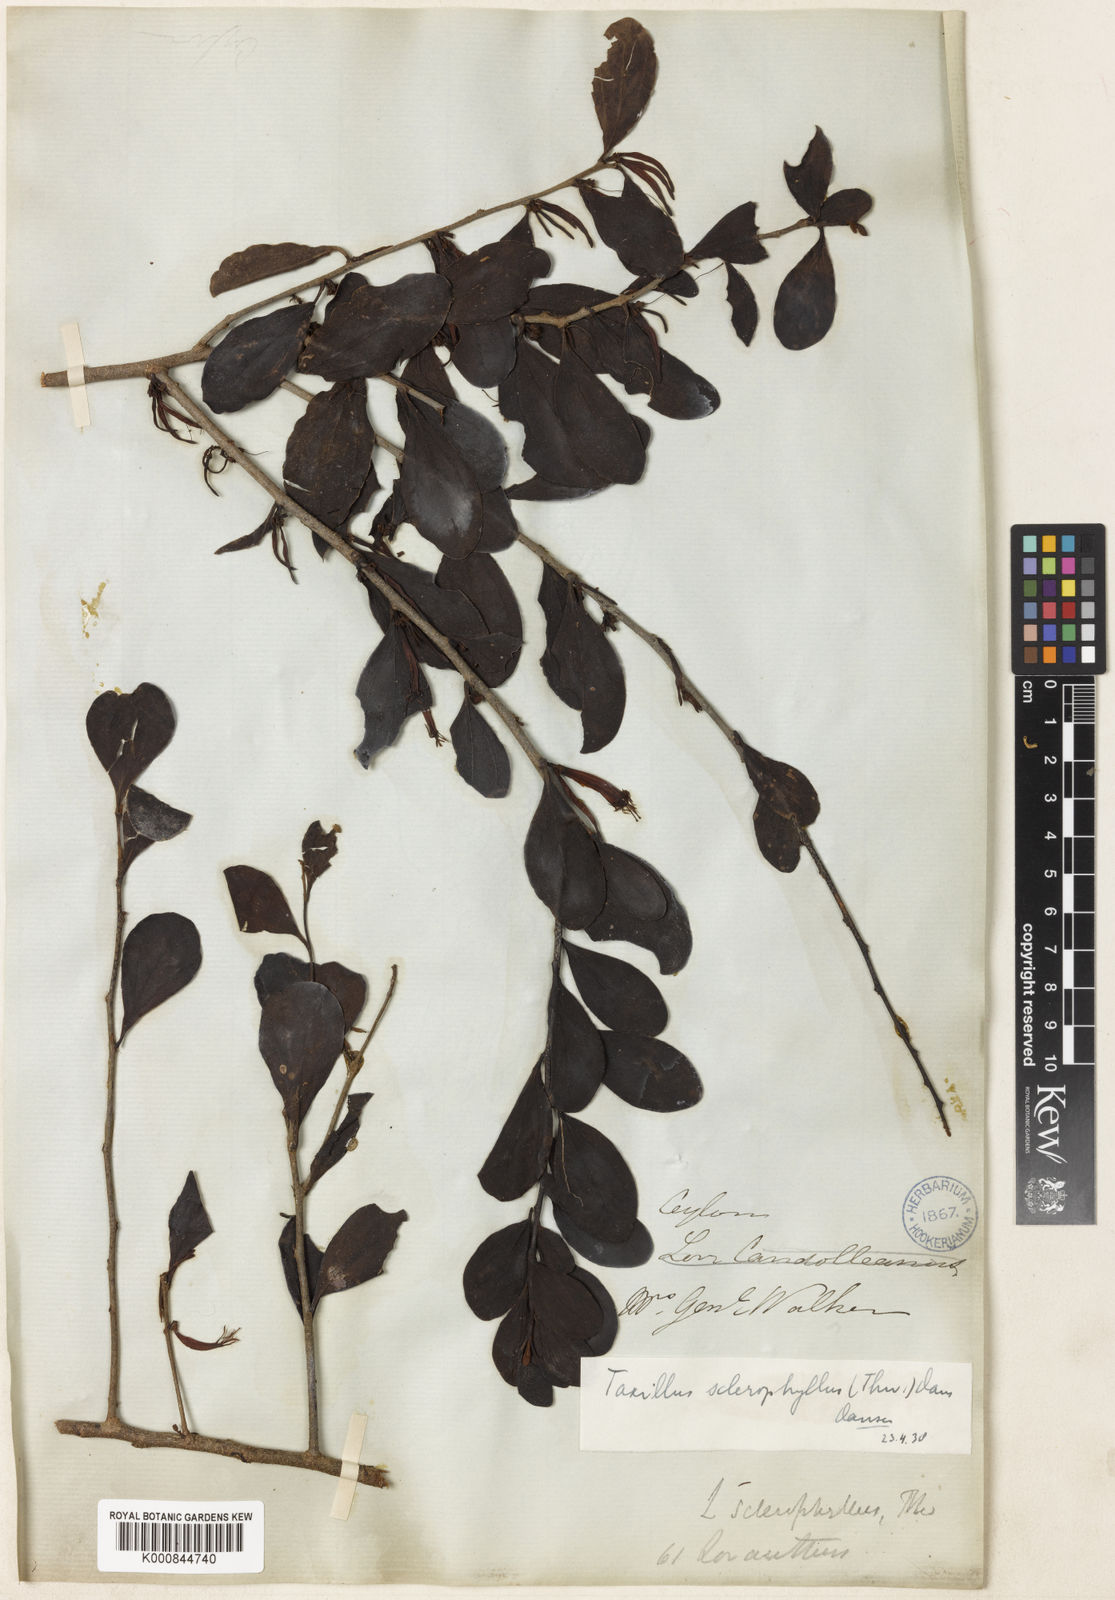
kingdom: Plantae
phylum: Tracheophyta
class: Magnoliopsida
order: Santalales
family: Loranthaceae
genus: Taxillus
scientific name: Taxillus sclerophyllus
